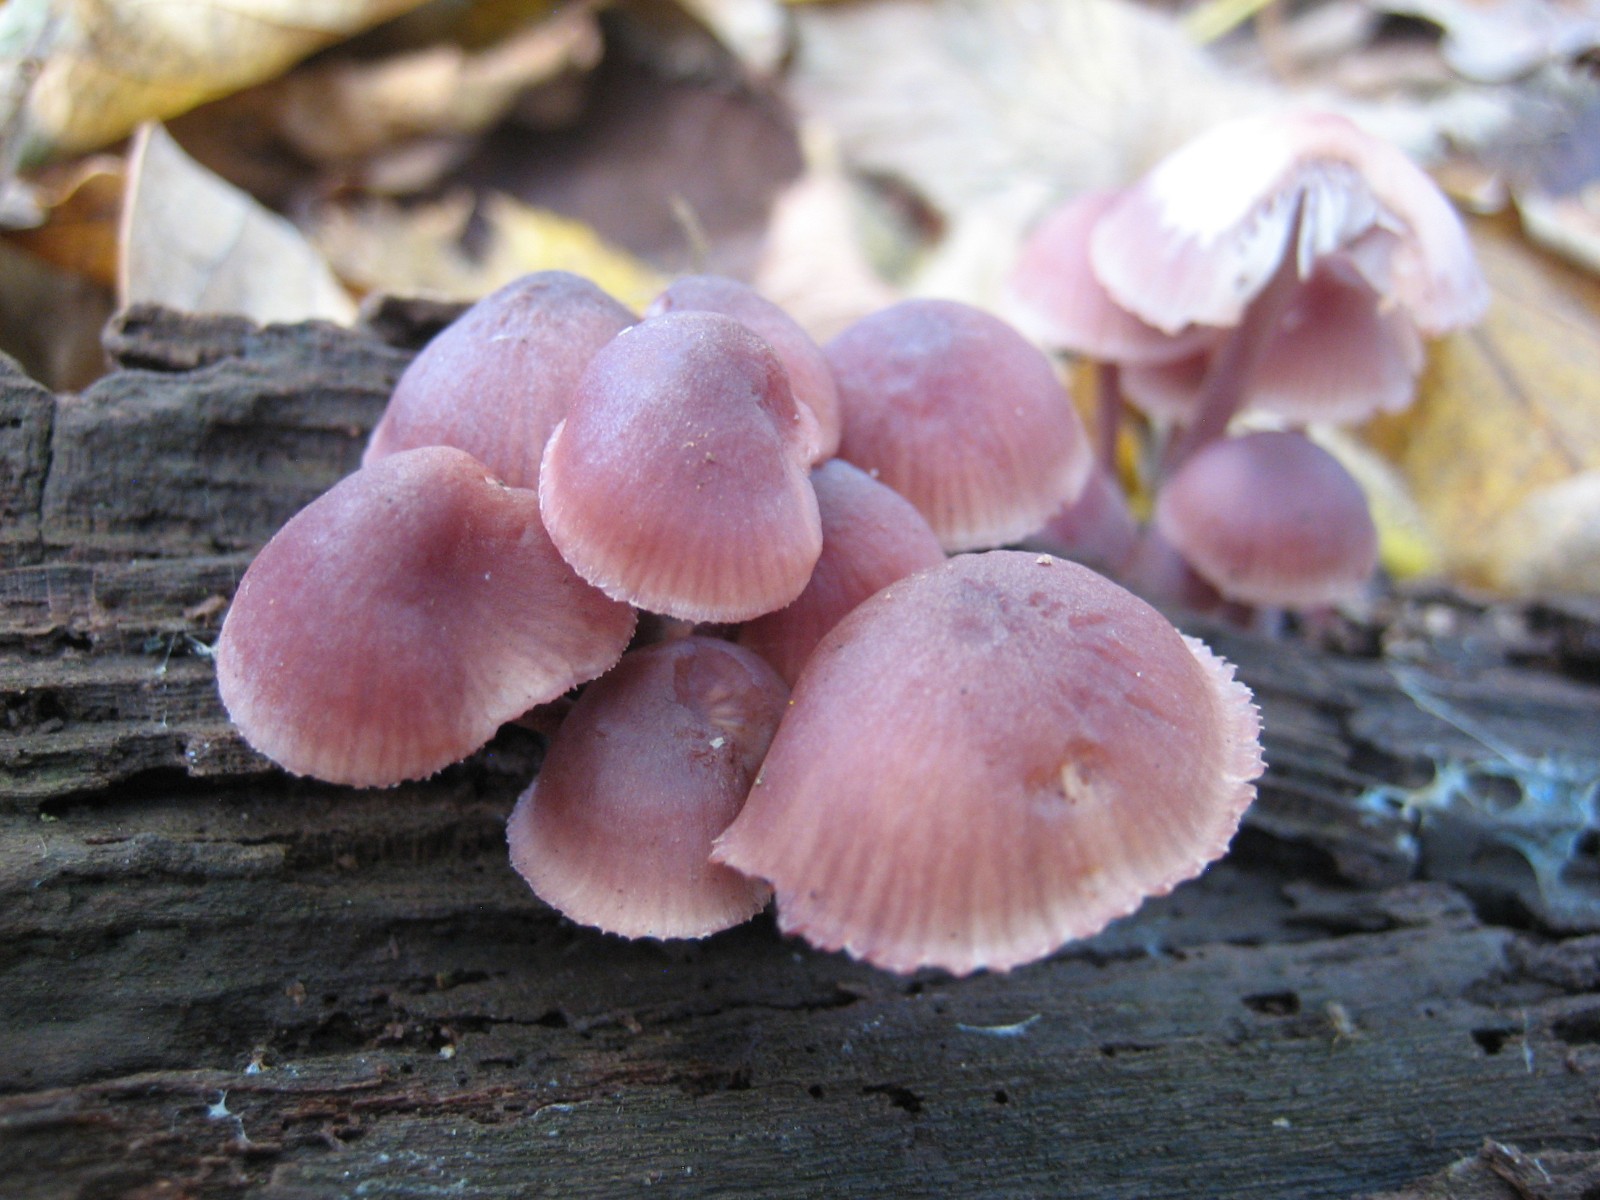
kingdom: Fungi
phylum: Basidiomycota
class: Agaricomycetes
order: Agaricales
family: Mycenaceae
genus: Mycena
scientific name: Mycena haematopus
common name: blødende huesvamp
